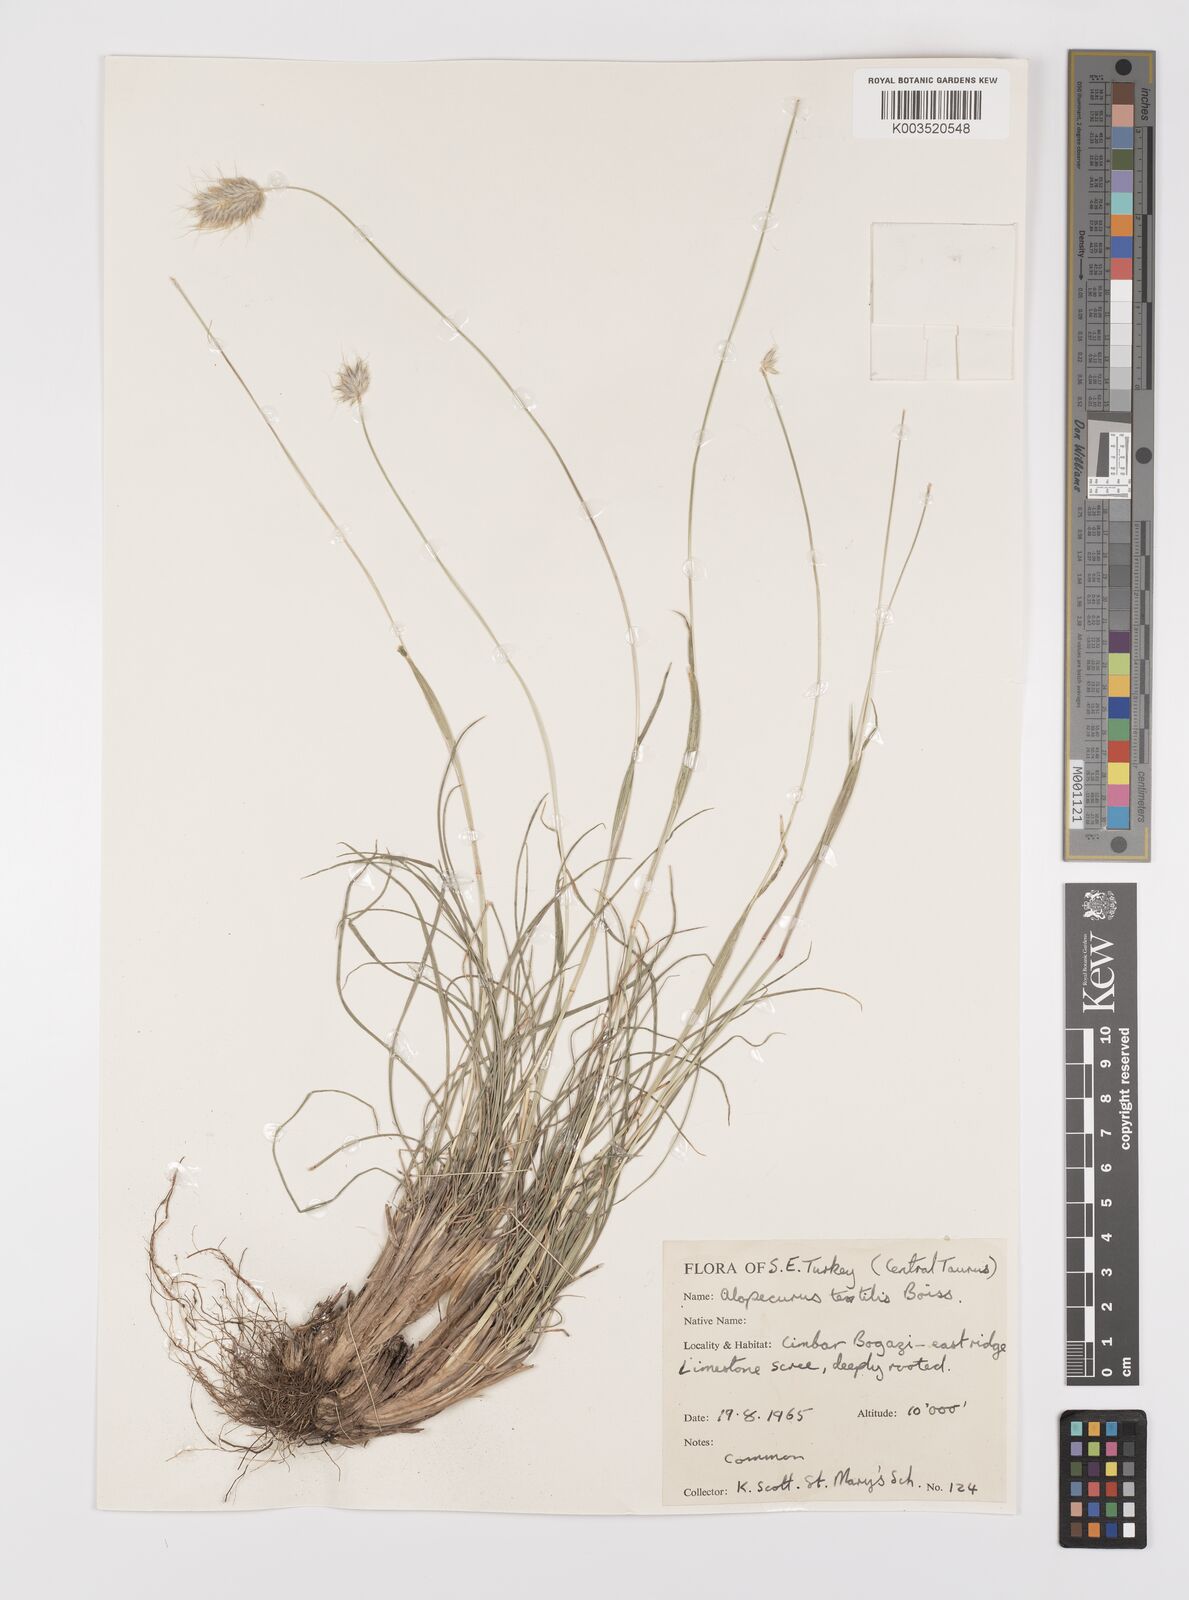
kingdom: Plantae
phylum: Tracheophyta
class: Liliopsida
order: Poales
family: Poaceae
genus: Alopecurus
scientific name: Alopecurus textilis
